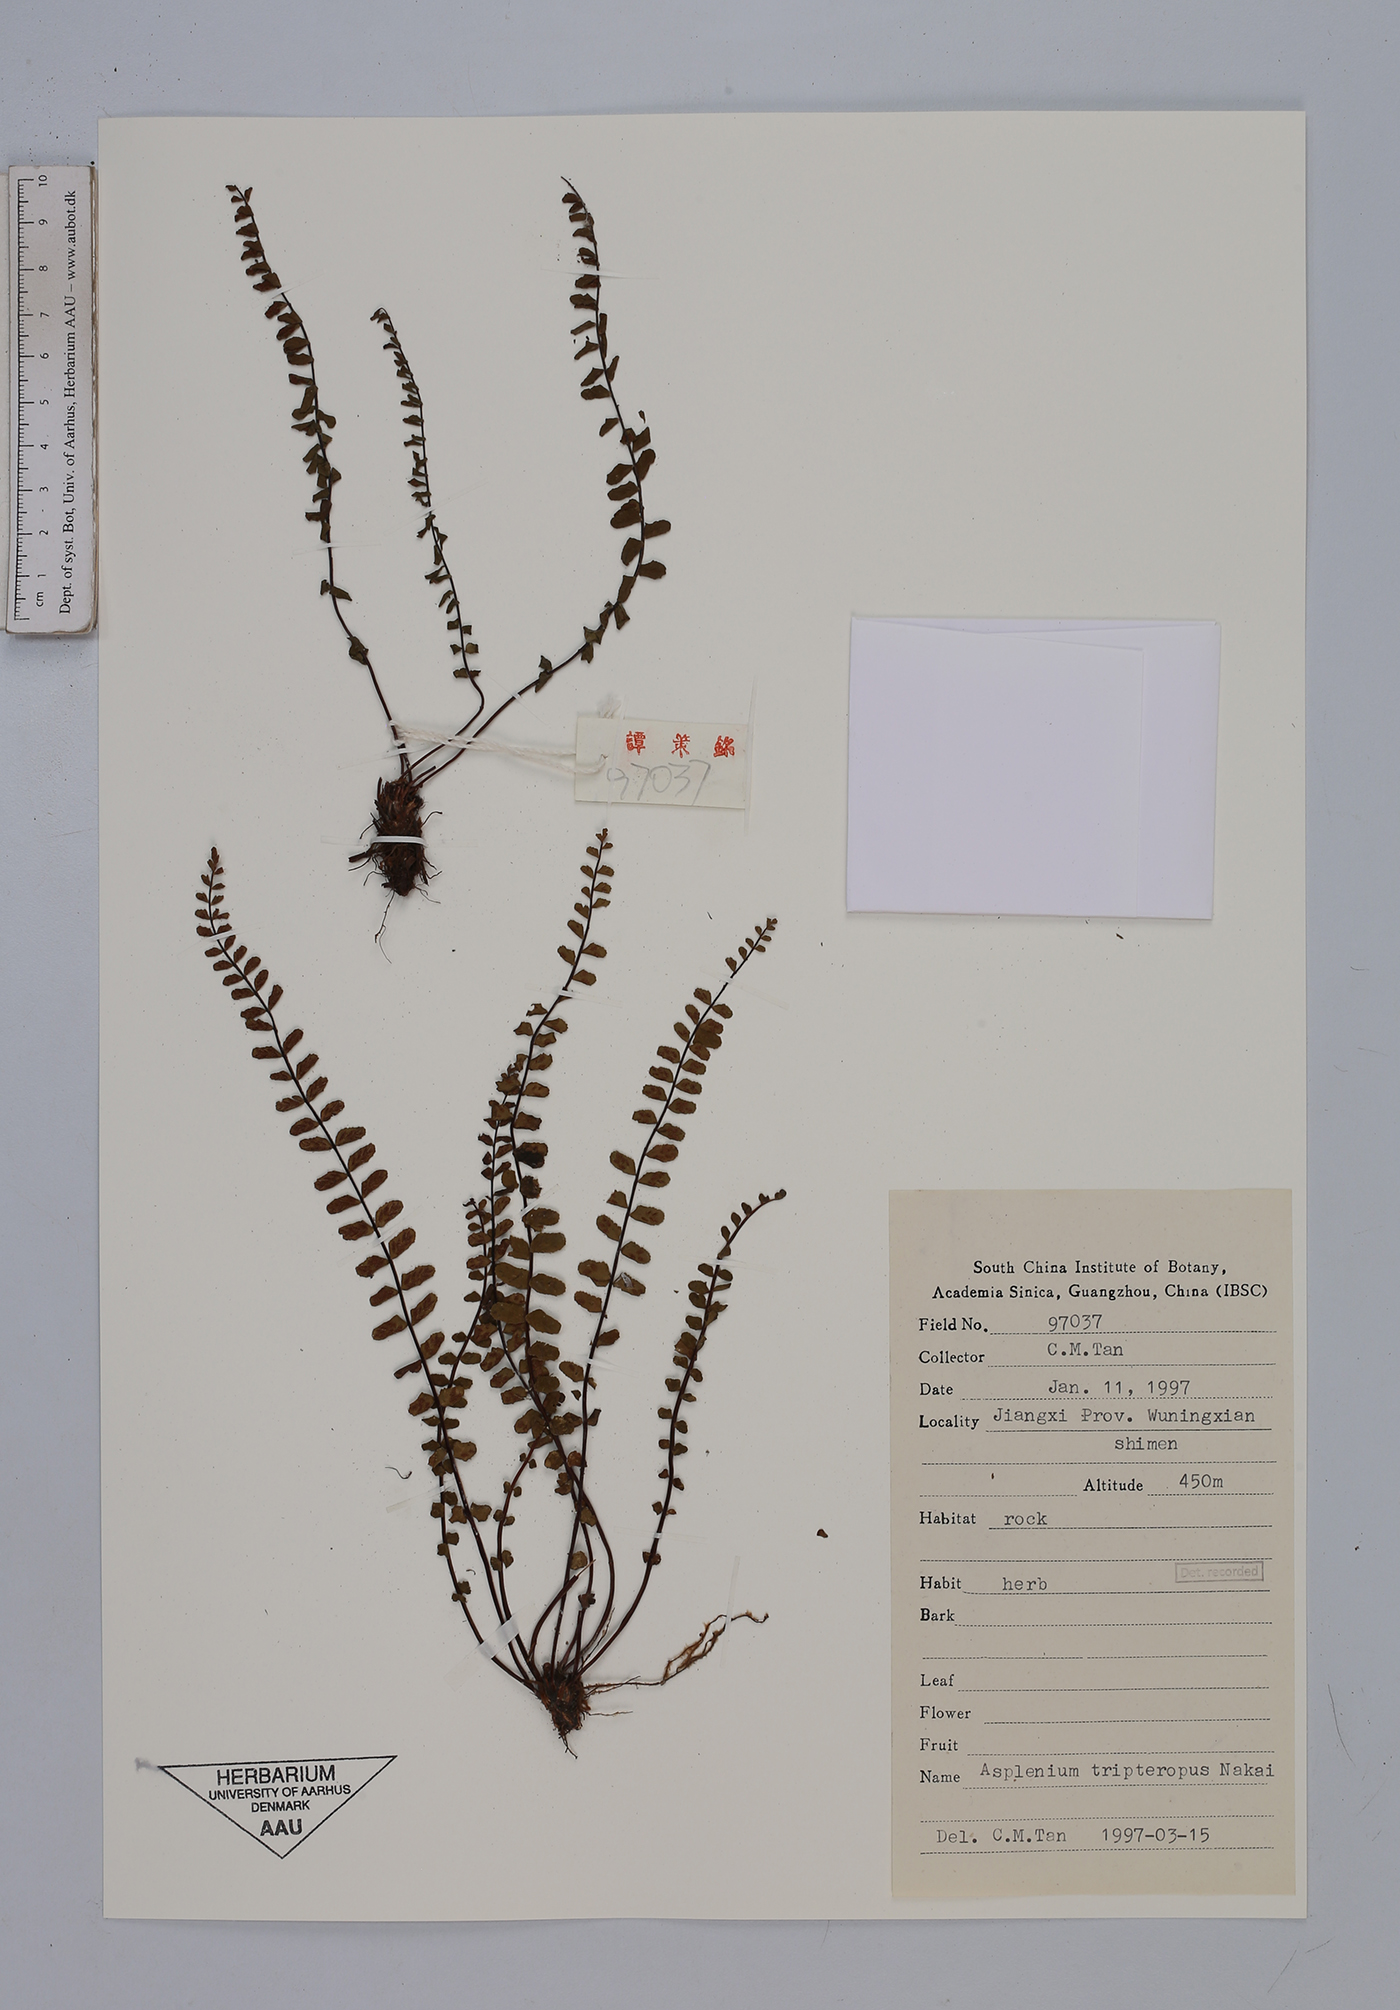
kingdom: Plantae
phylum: Tracheophyta
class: Polypodiopsida
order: Polypodiales
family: Aspleniaceae
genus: Asplenium
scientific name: Asplenium tripteropus
